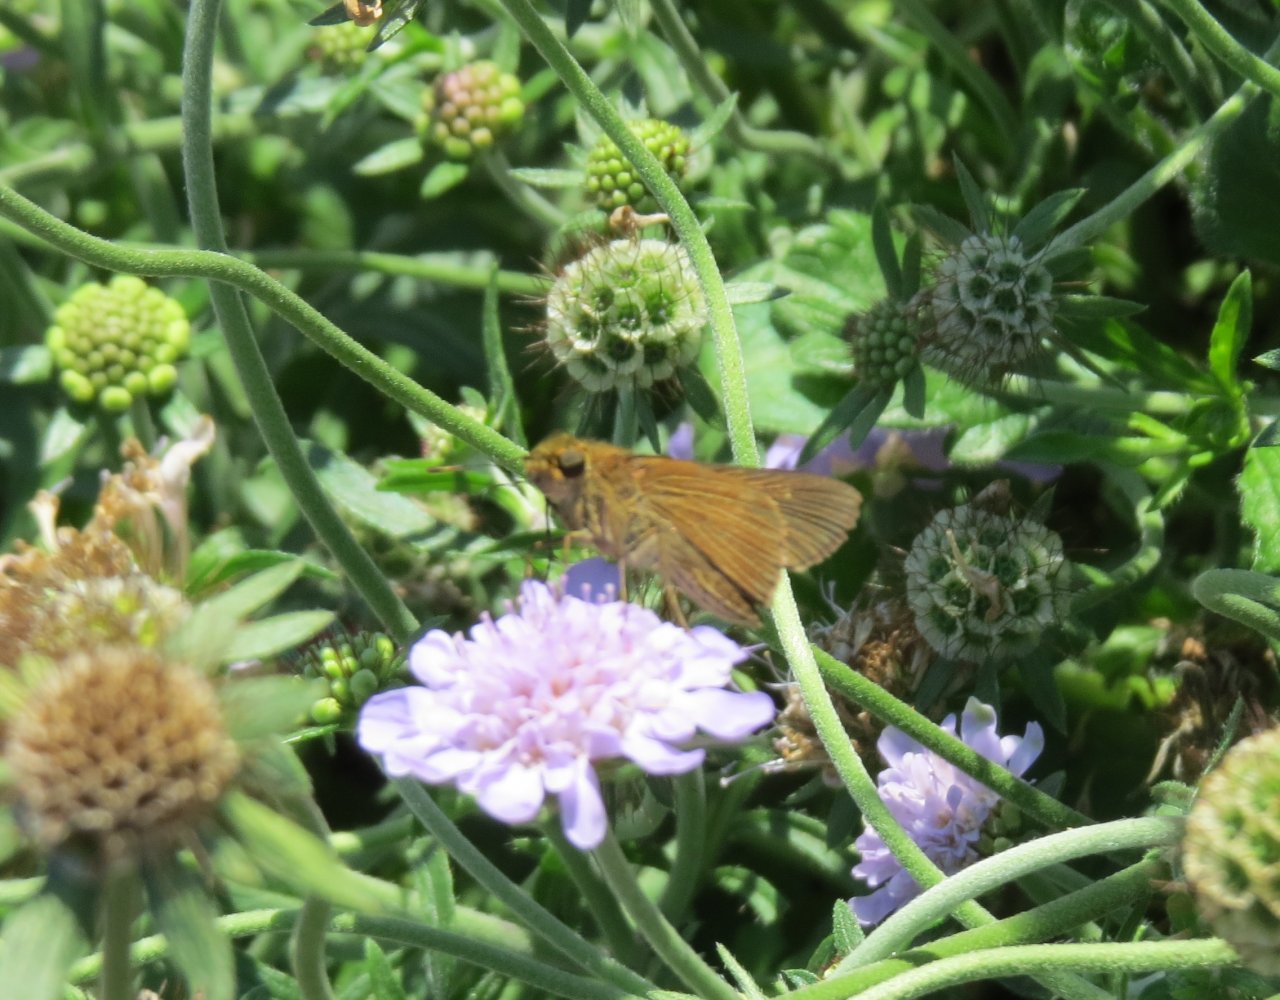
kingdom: Animalia
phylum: Arthropoda
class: Insecta
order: Lepidoptera
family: Hesperiidae
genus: Panoquina
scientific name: Panoquina ocola
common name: Ocola Skipper
